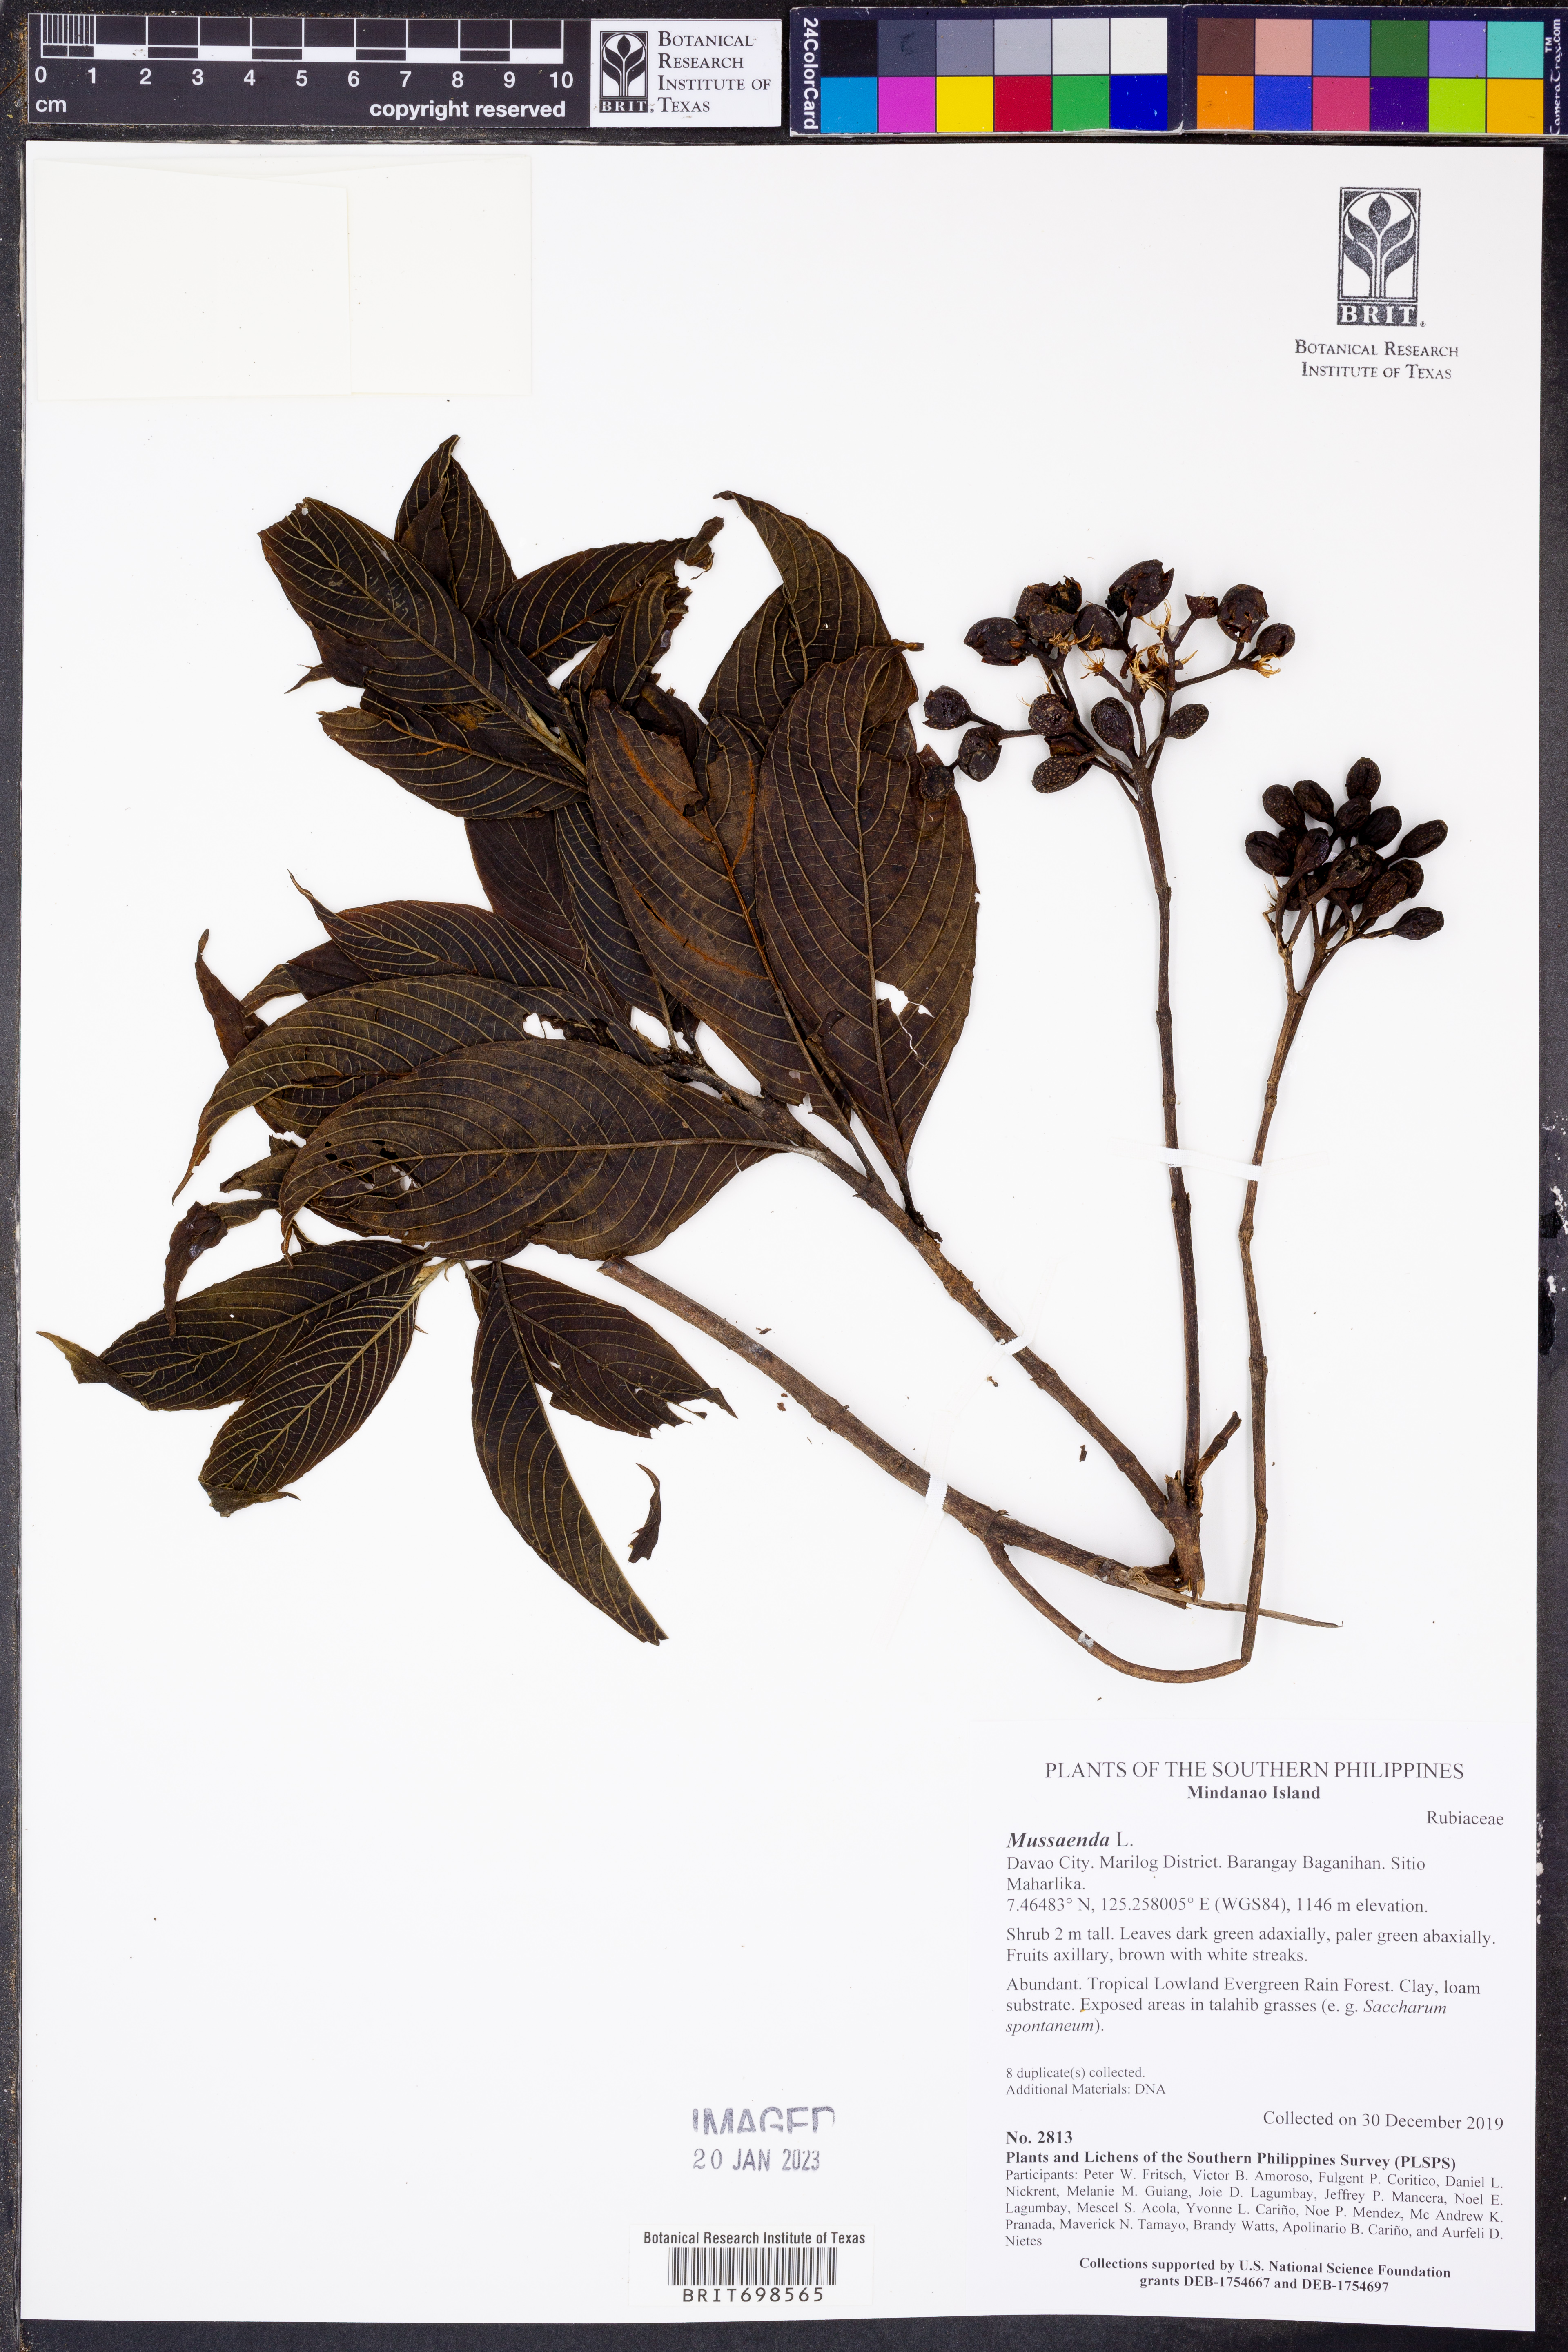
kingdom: Plantae
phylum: Tracheophyta
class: Magnoliopsida
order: Gentianales
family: Rubiaceae
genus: Mussaenda
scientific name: Mussaenda
